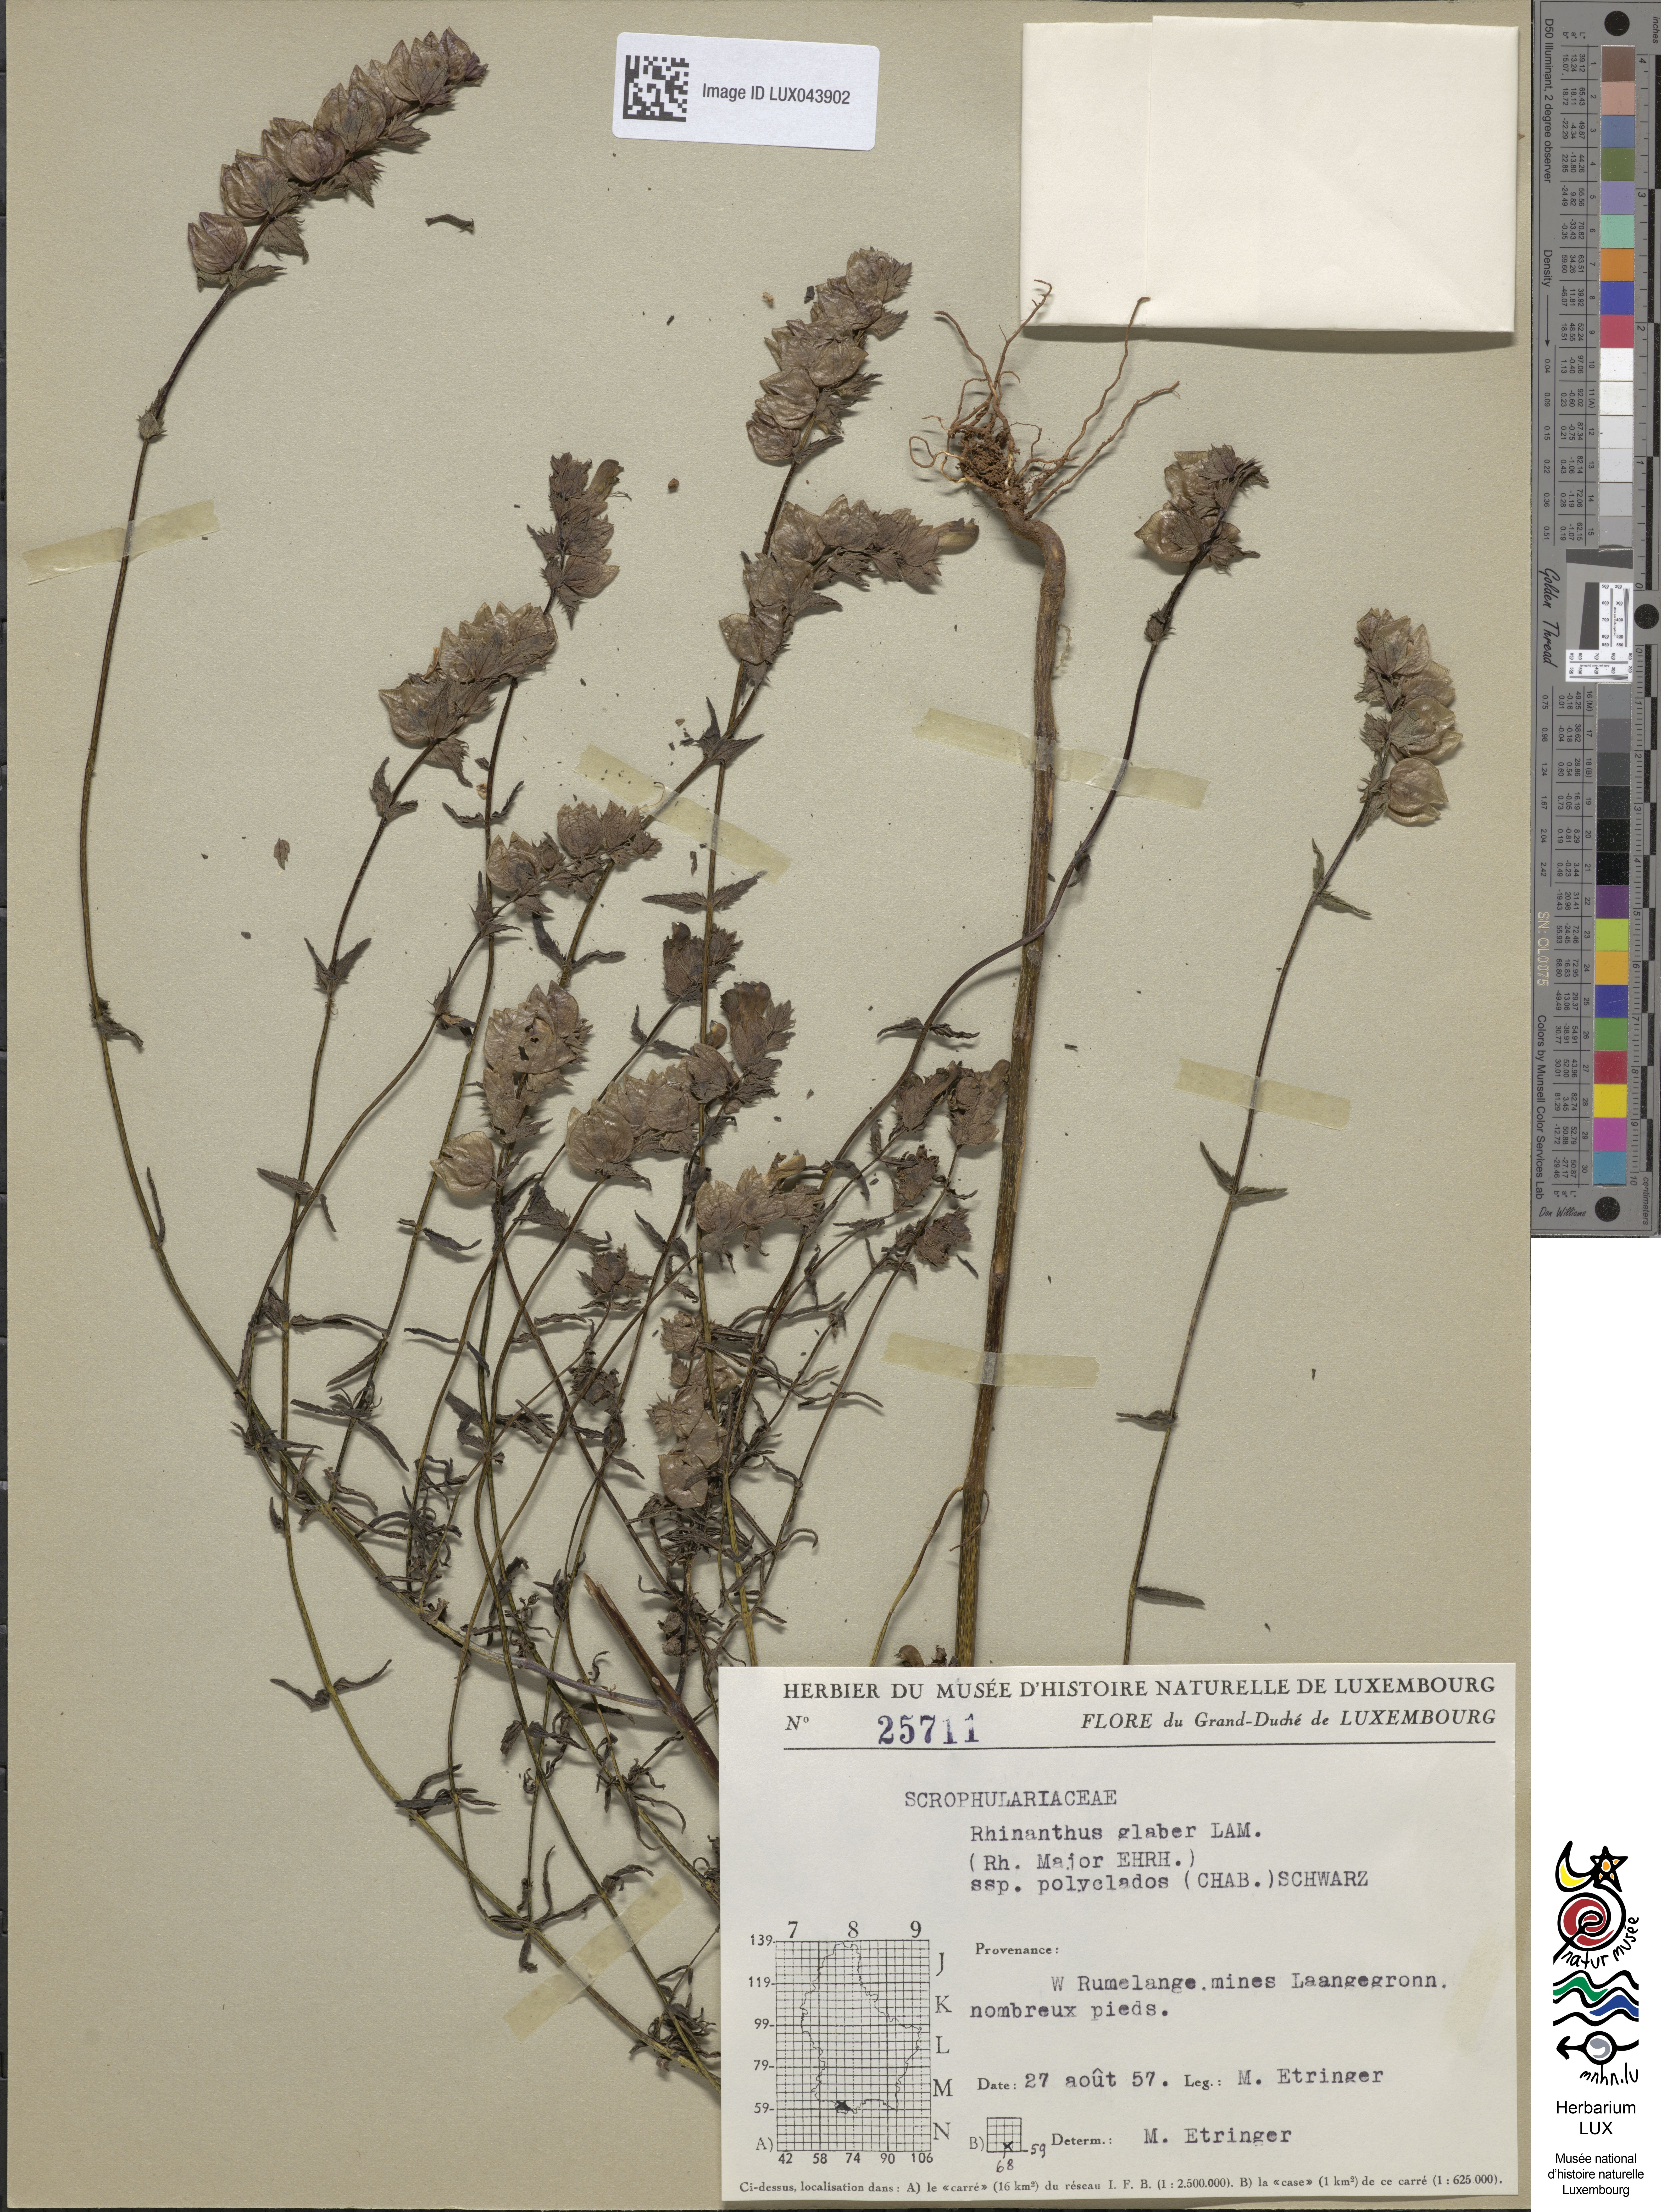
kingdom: Plantae
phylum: Tracheophyta
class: Magnoliopsida
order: Lamiales
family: Orobanchaceae
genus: Rhinanthus
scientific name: Rhinanthus serotinus
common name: Late-flowering yellow rattle
